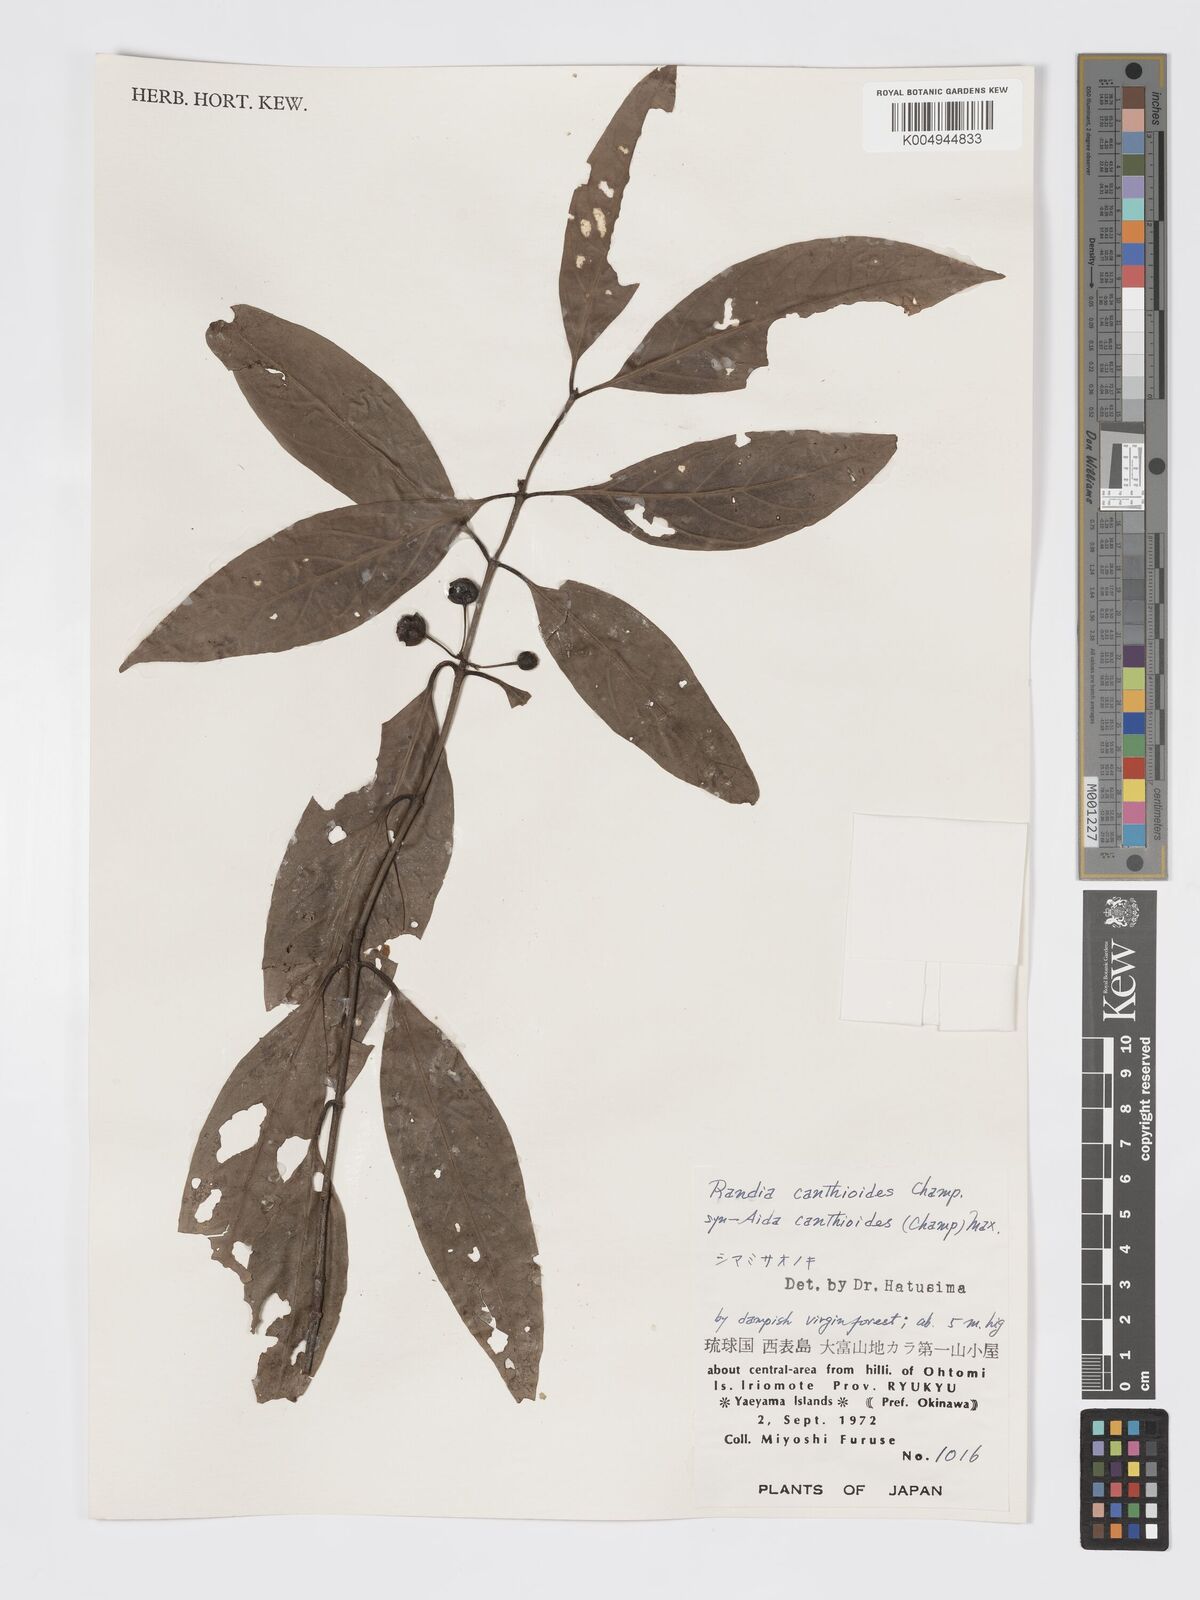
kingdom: Plantae
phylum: Tracheophyta
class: Magnoliopsida
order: Gentianales
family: Rubiaceae
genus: Aidia
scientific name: Aidia canthioides
